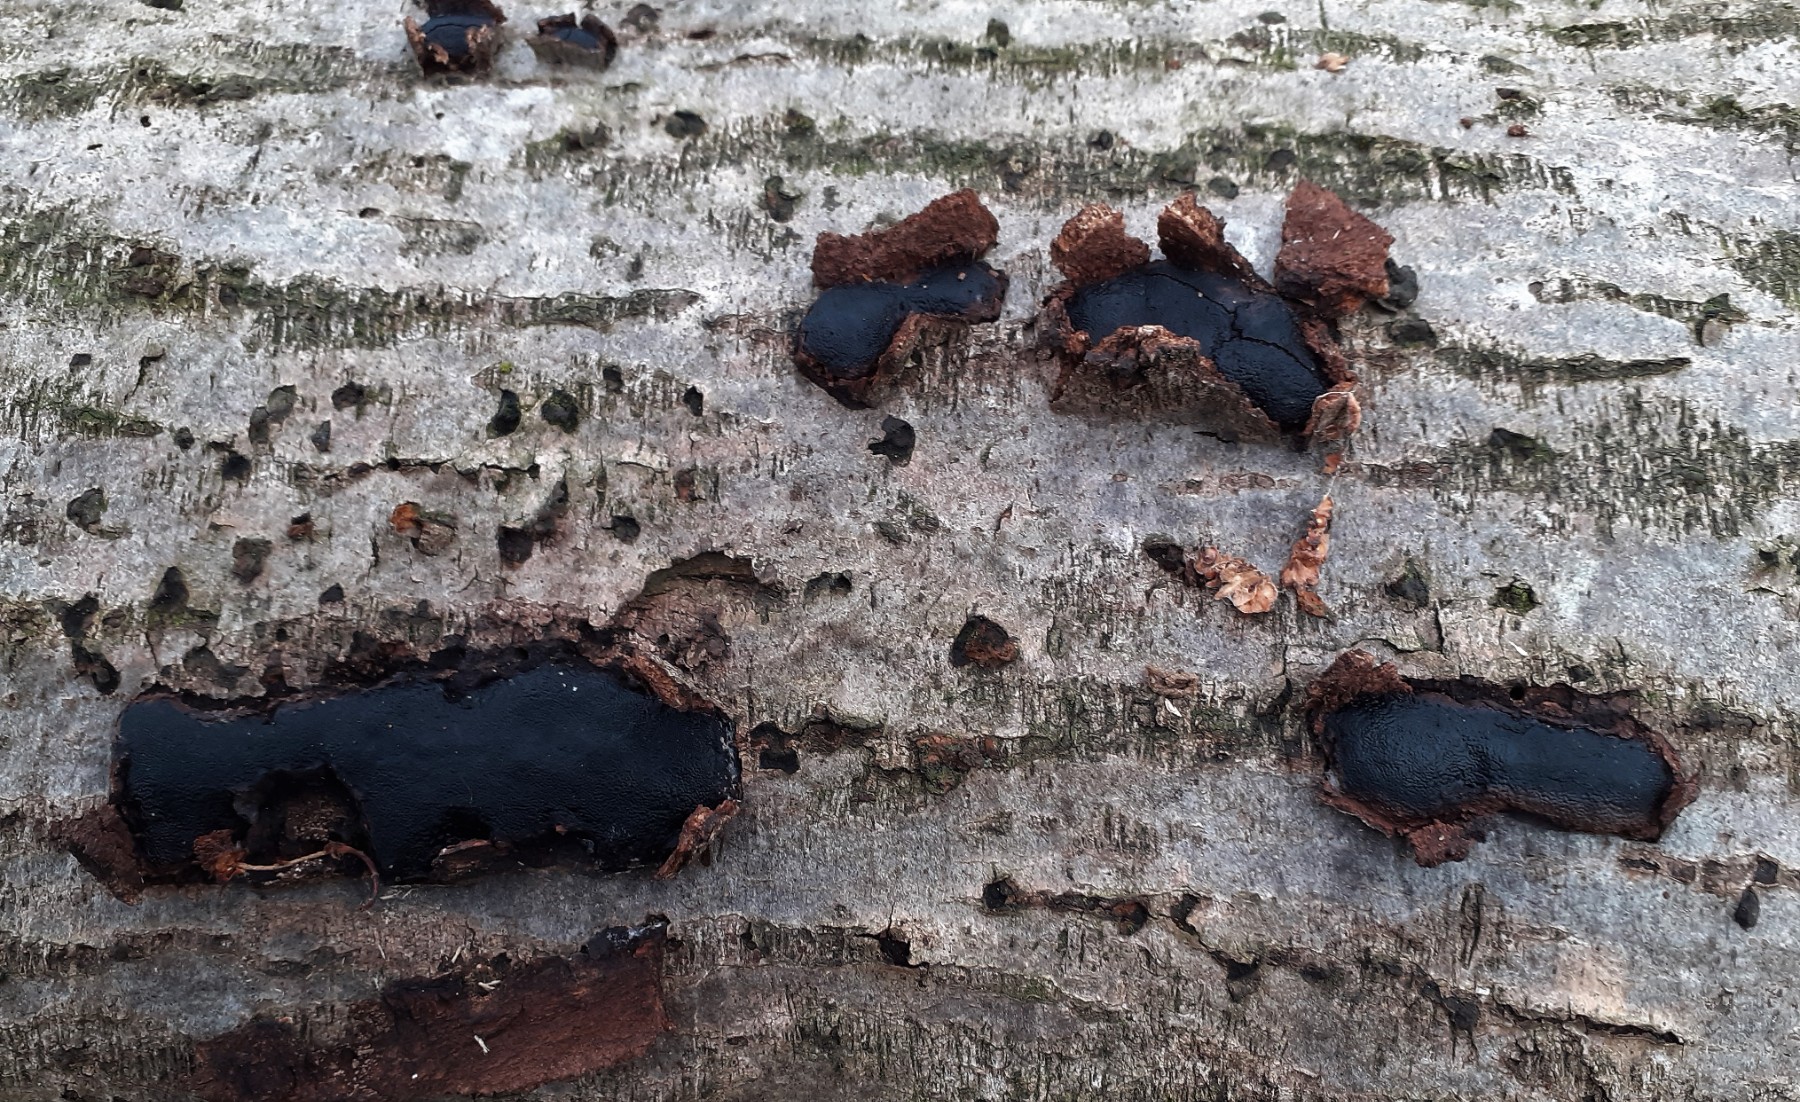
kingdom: Fungi
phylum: Ascomycota
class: Sordariomycetes
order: Boliniales
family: Boliniaceae
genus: Camarops
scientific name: Camarops polysperma
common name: elle-kulsnegl
